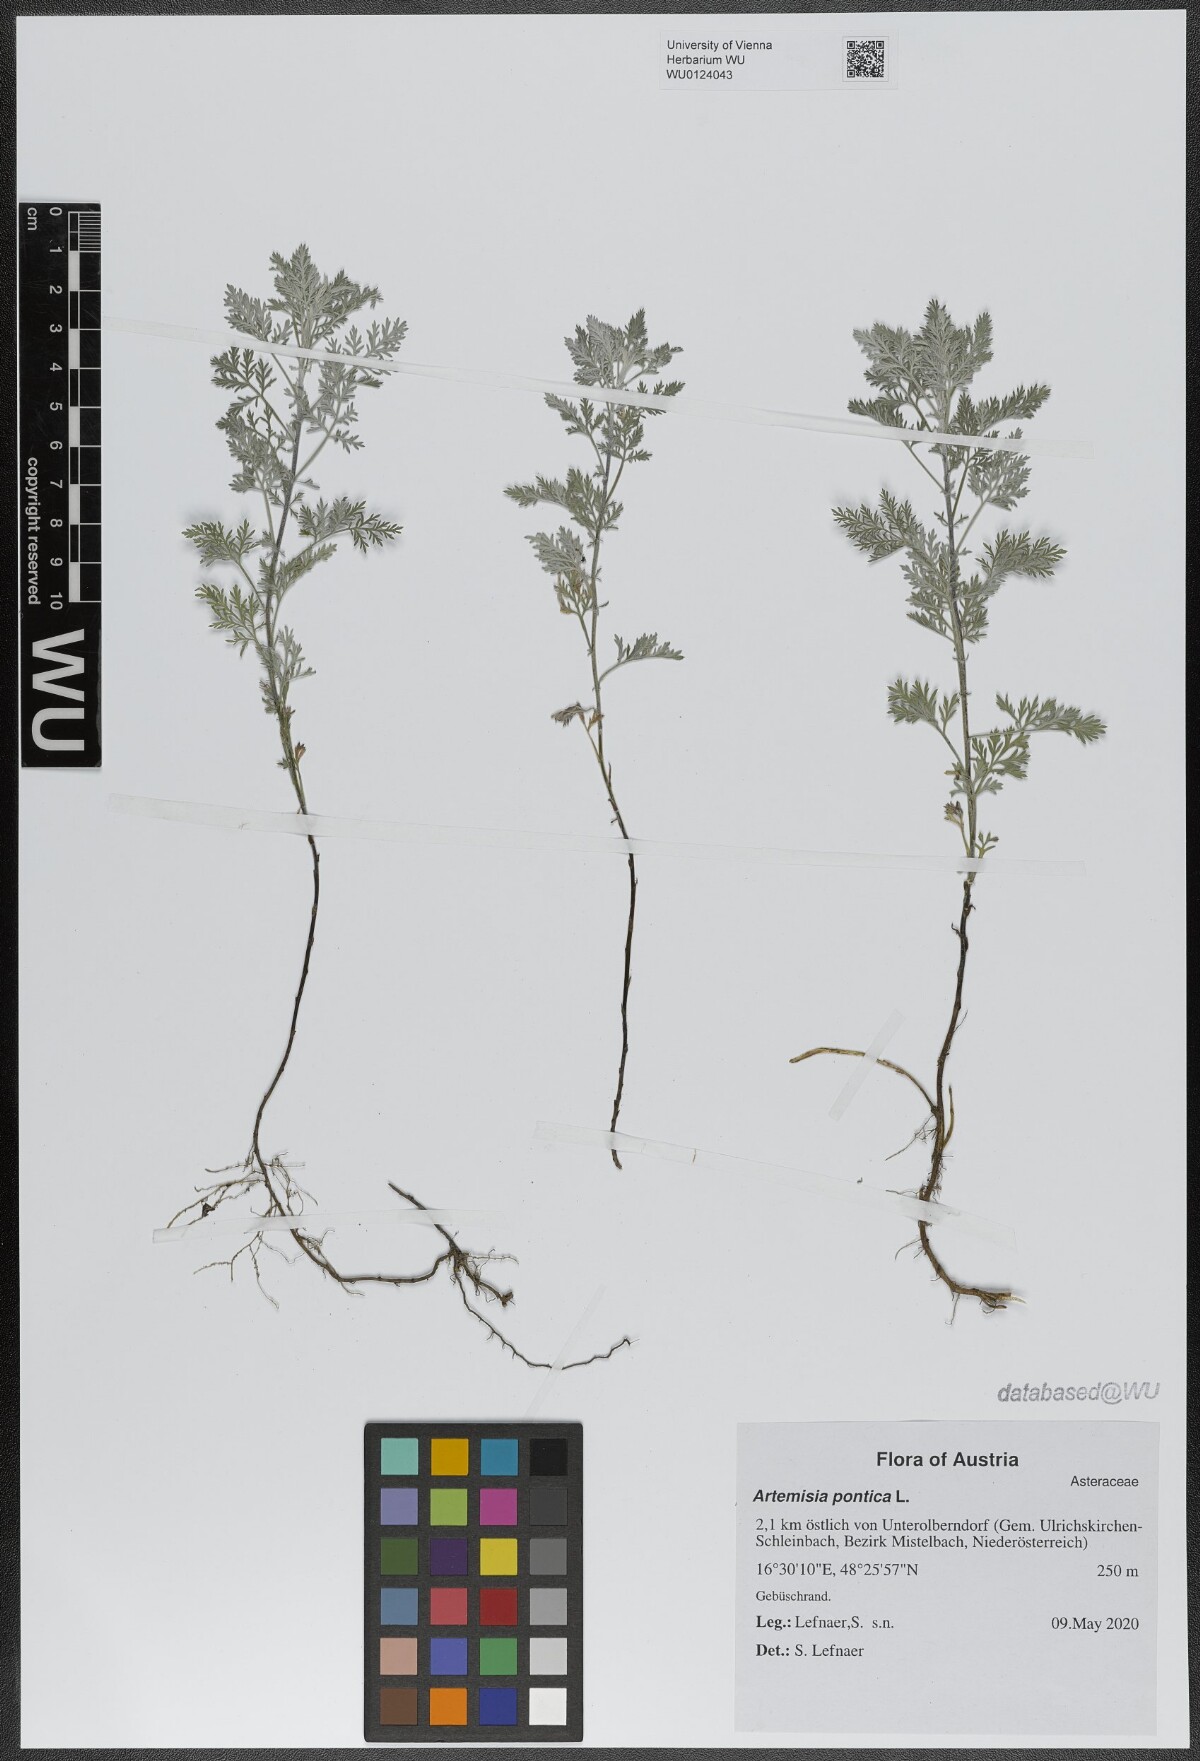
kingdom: Plantae
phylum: Tracheophyta
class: Magnoliopsida
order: Asterales
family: Asteraceae
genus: Artemisia
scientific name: Artemisia pontica
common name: Roman wormwood
